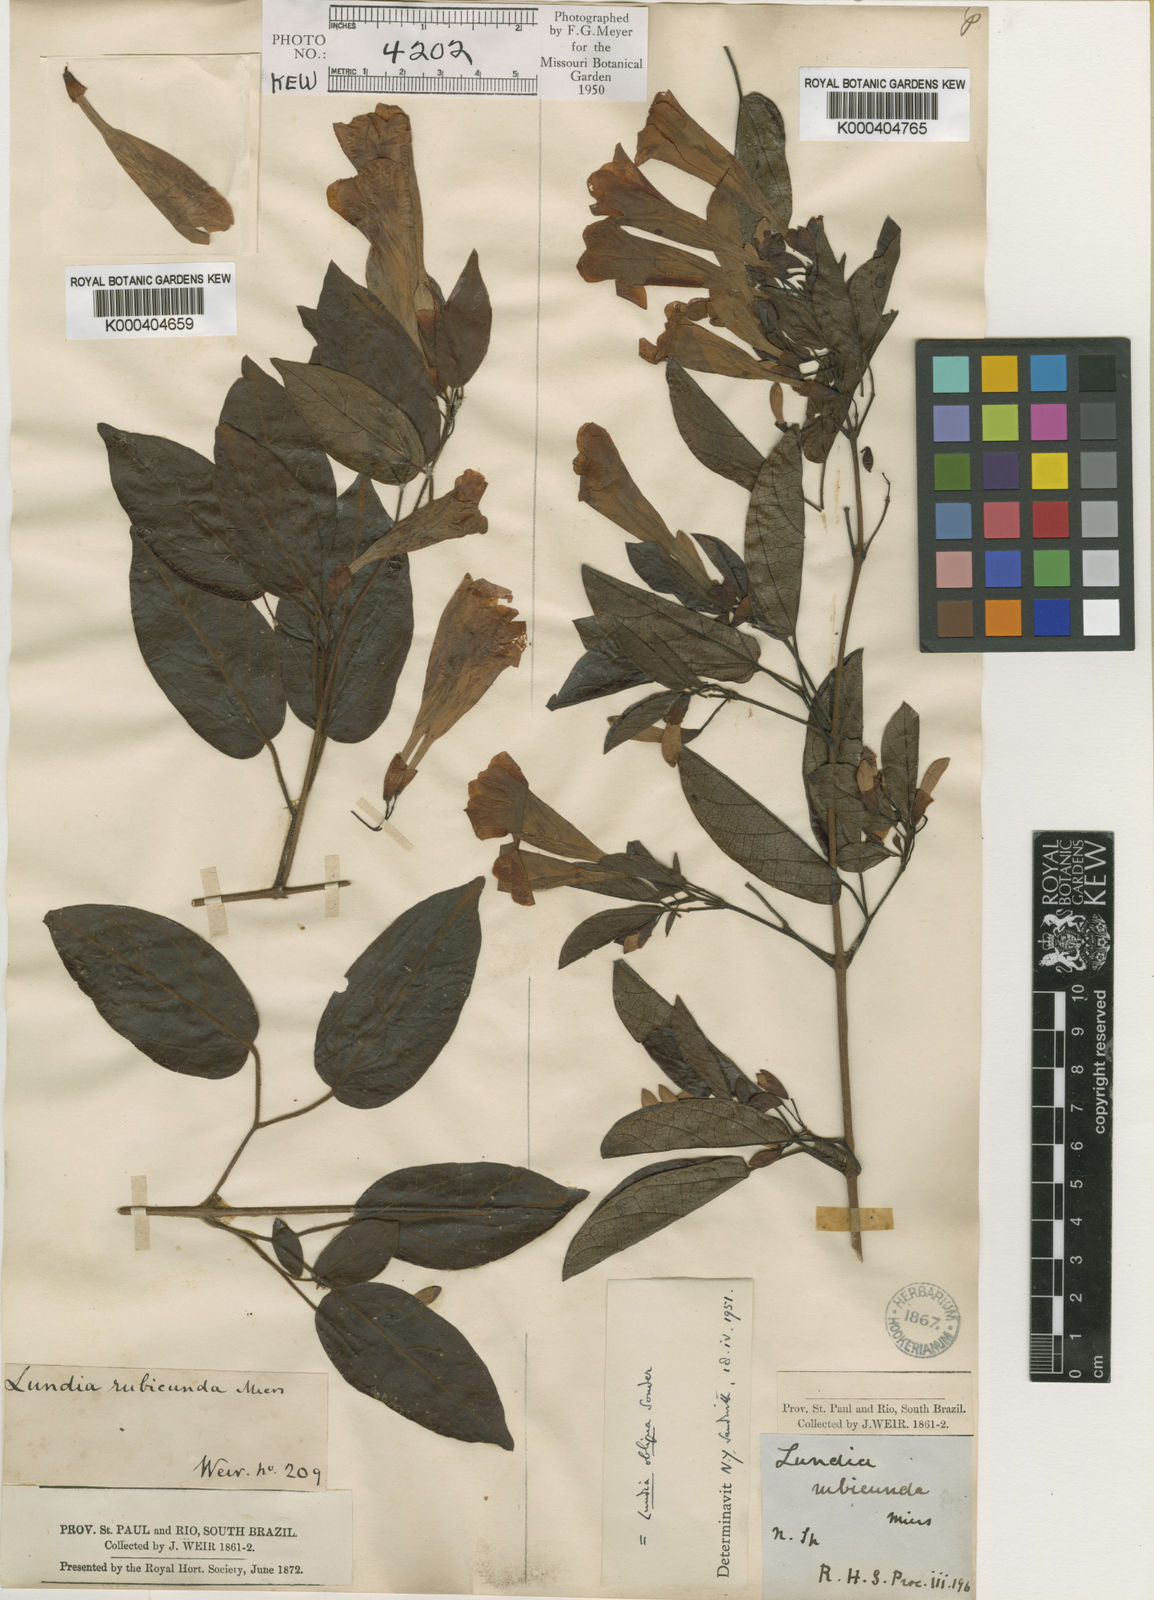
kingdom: Plantae
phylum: Tracheophyta
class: Magnoliopsida
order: Lamiales
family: Bignoniaceae
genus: Lundia
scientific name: Lundia obliqua
